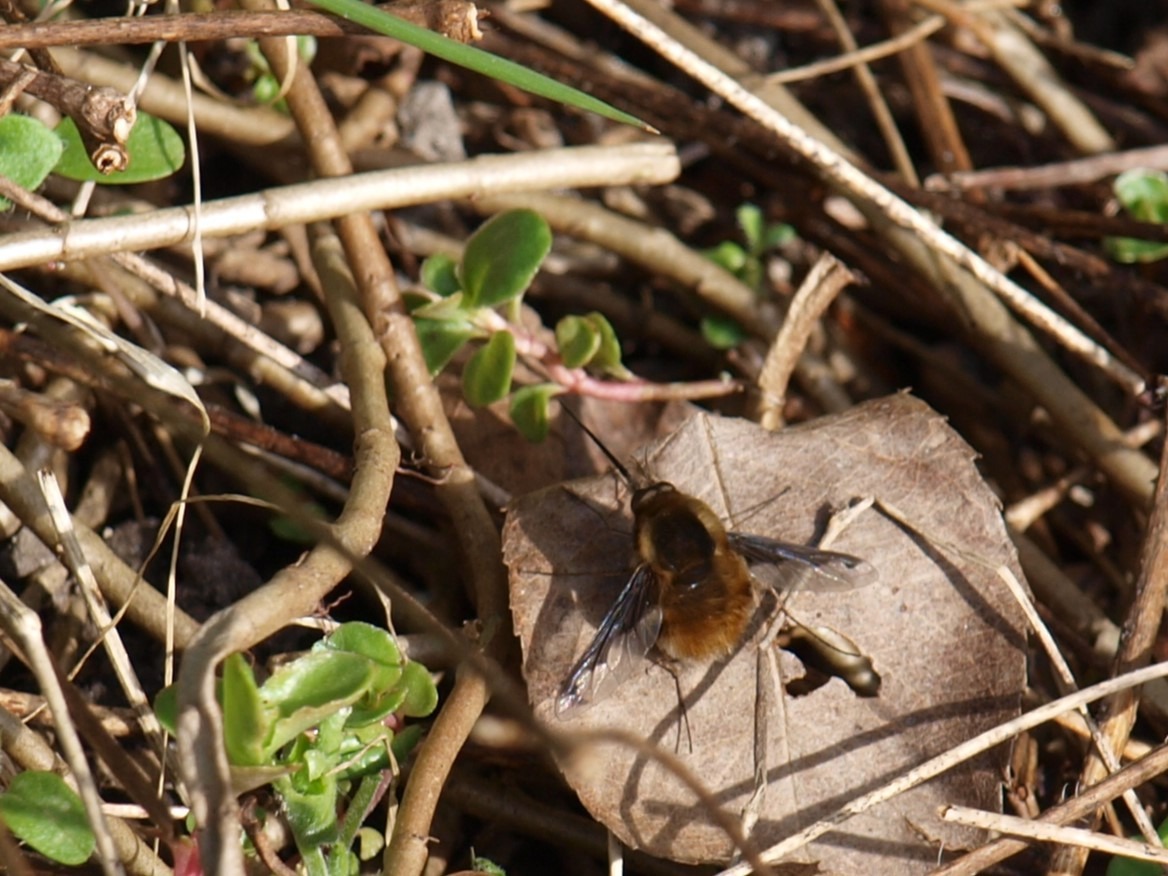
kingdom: Animalia
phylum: Arthropoda
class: Insecta
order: Diptera
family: Bombyliidae
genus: Bombylius
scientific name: Bombylius major
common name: Stor humleflue
